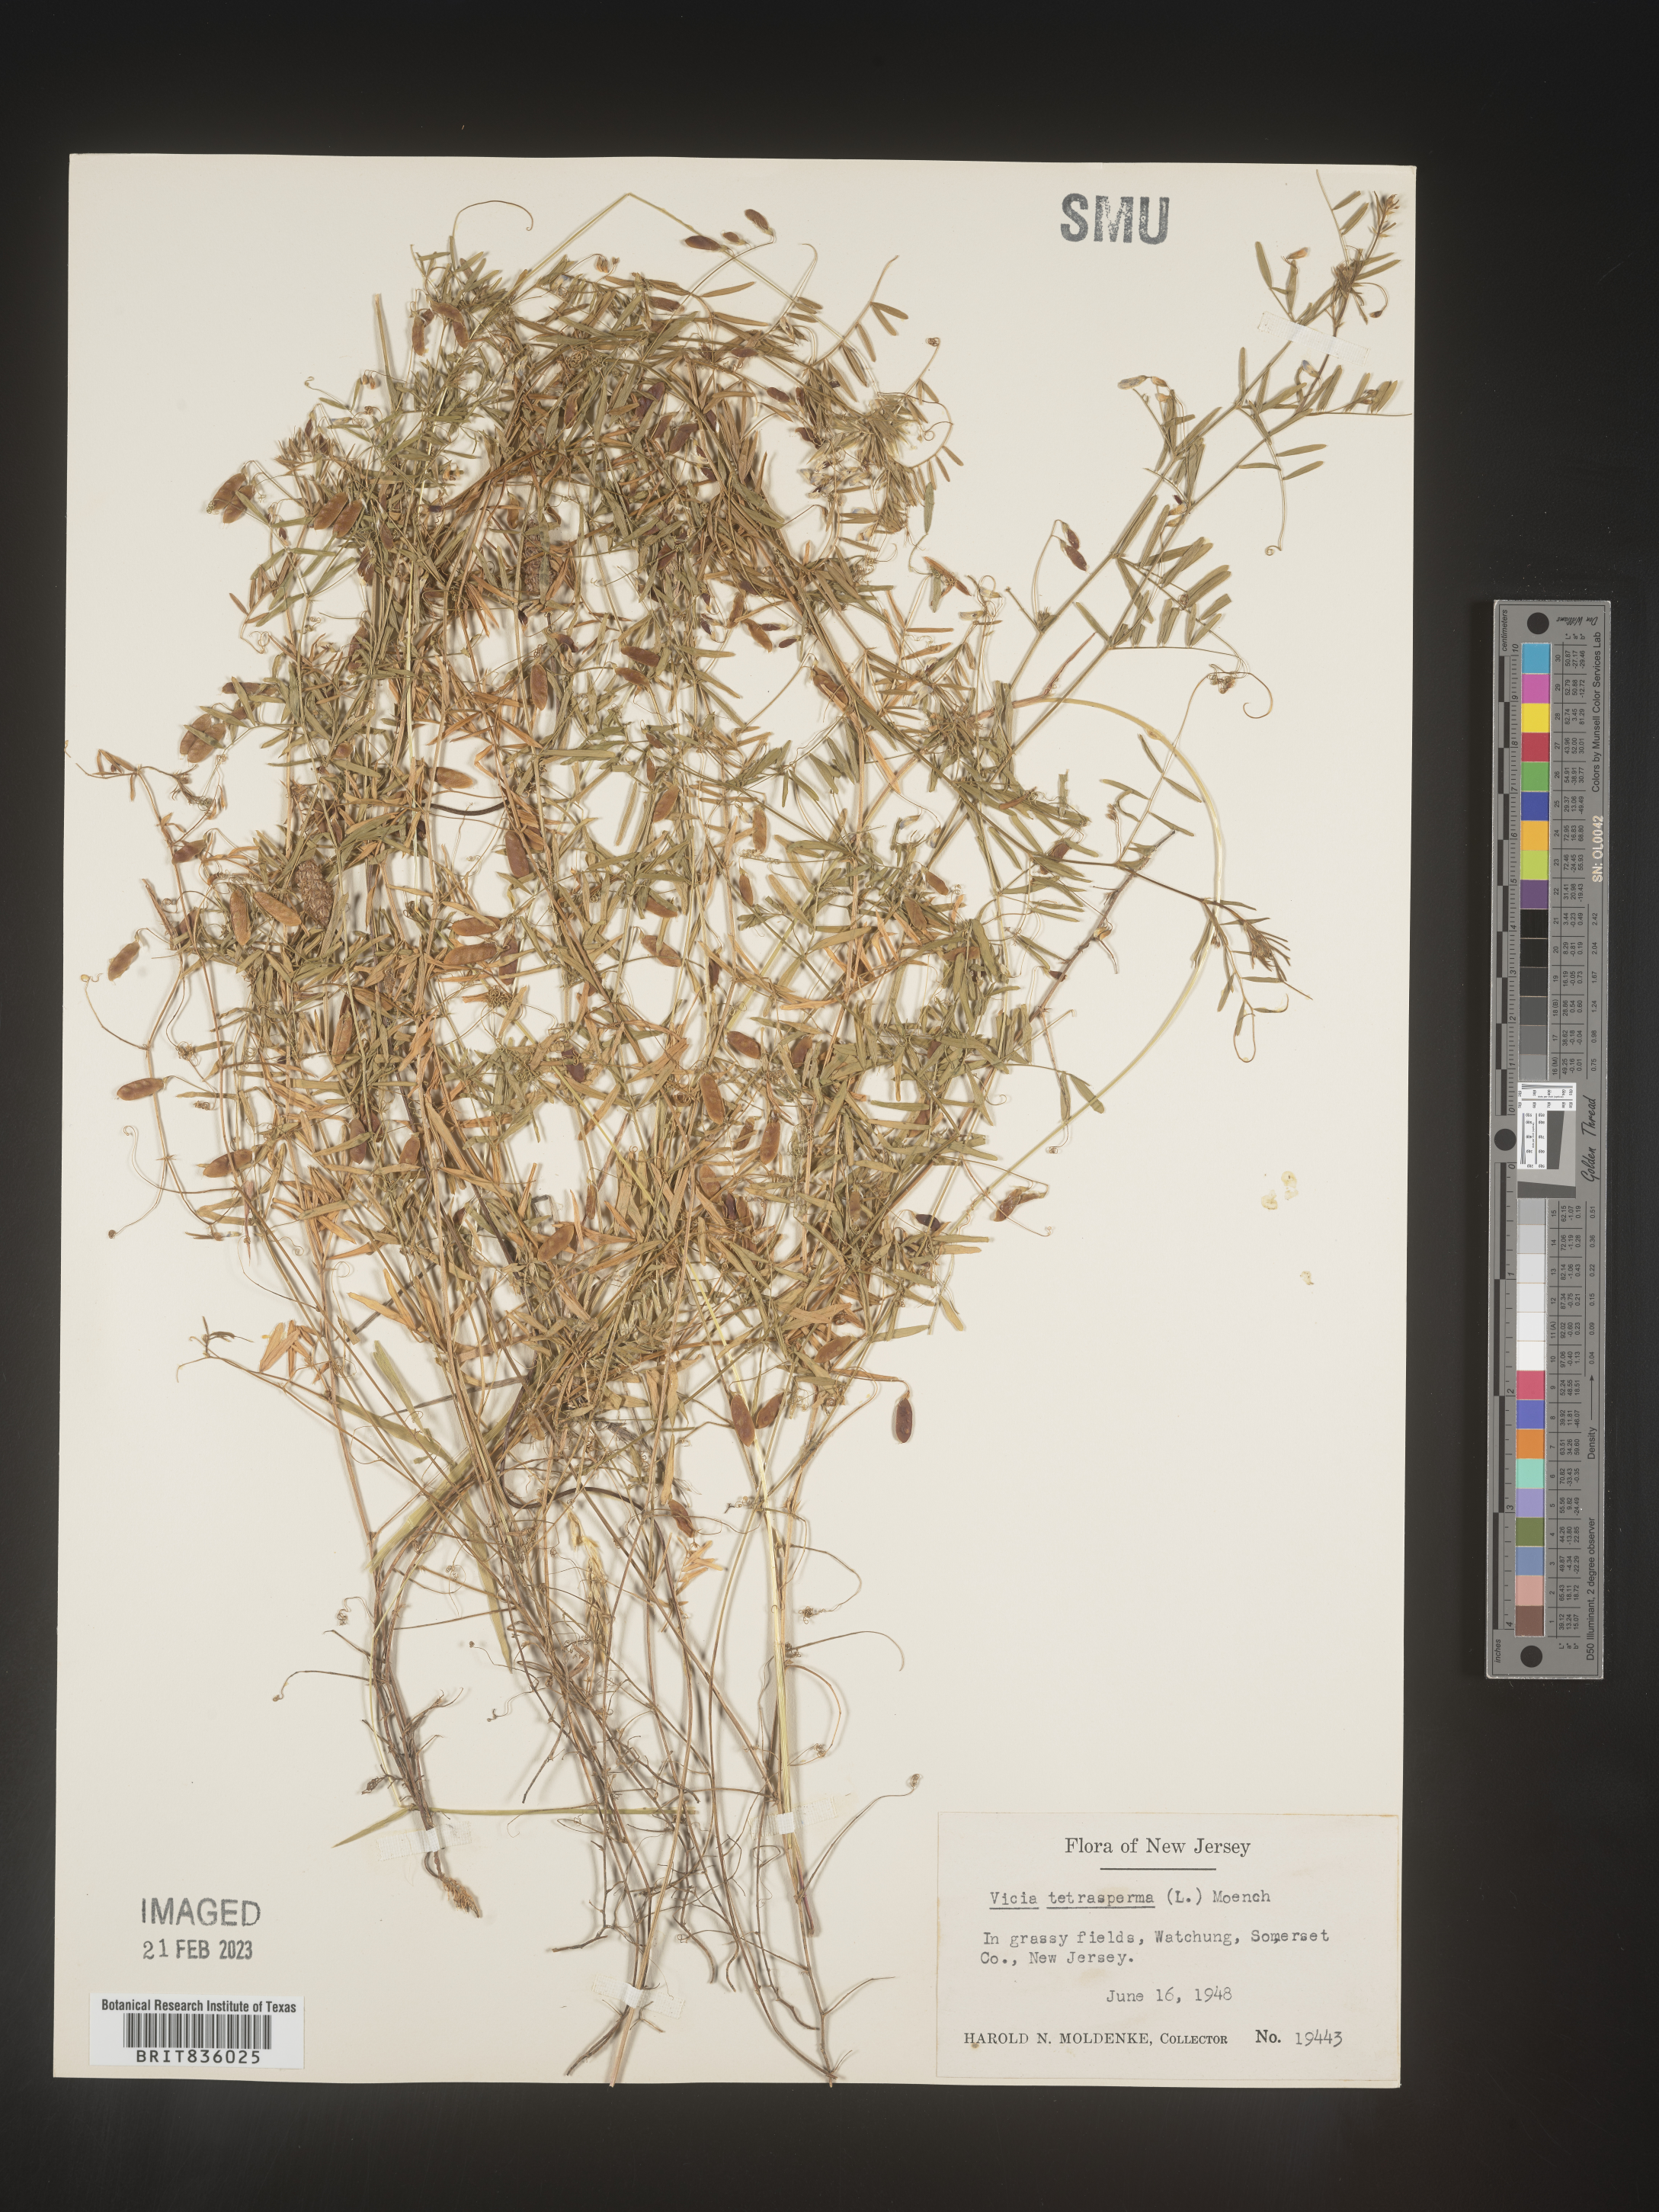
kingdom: Plantae
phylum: Tracheophyta
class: Magnoliopsida
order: Fabales
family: Fabaceae
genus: Vicia
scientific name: Vicia tetrasperma
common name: Smooth tare
